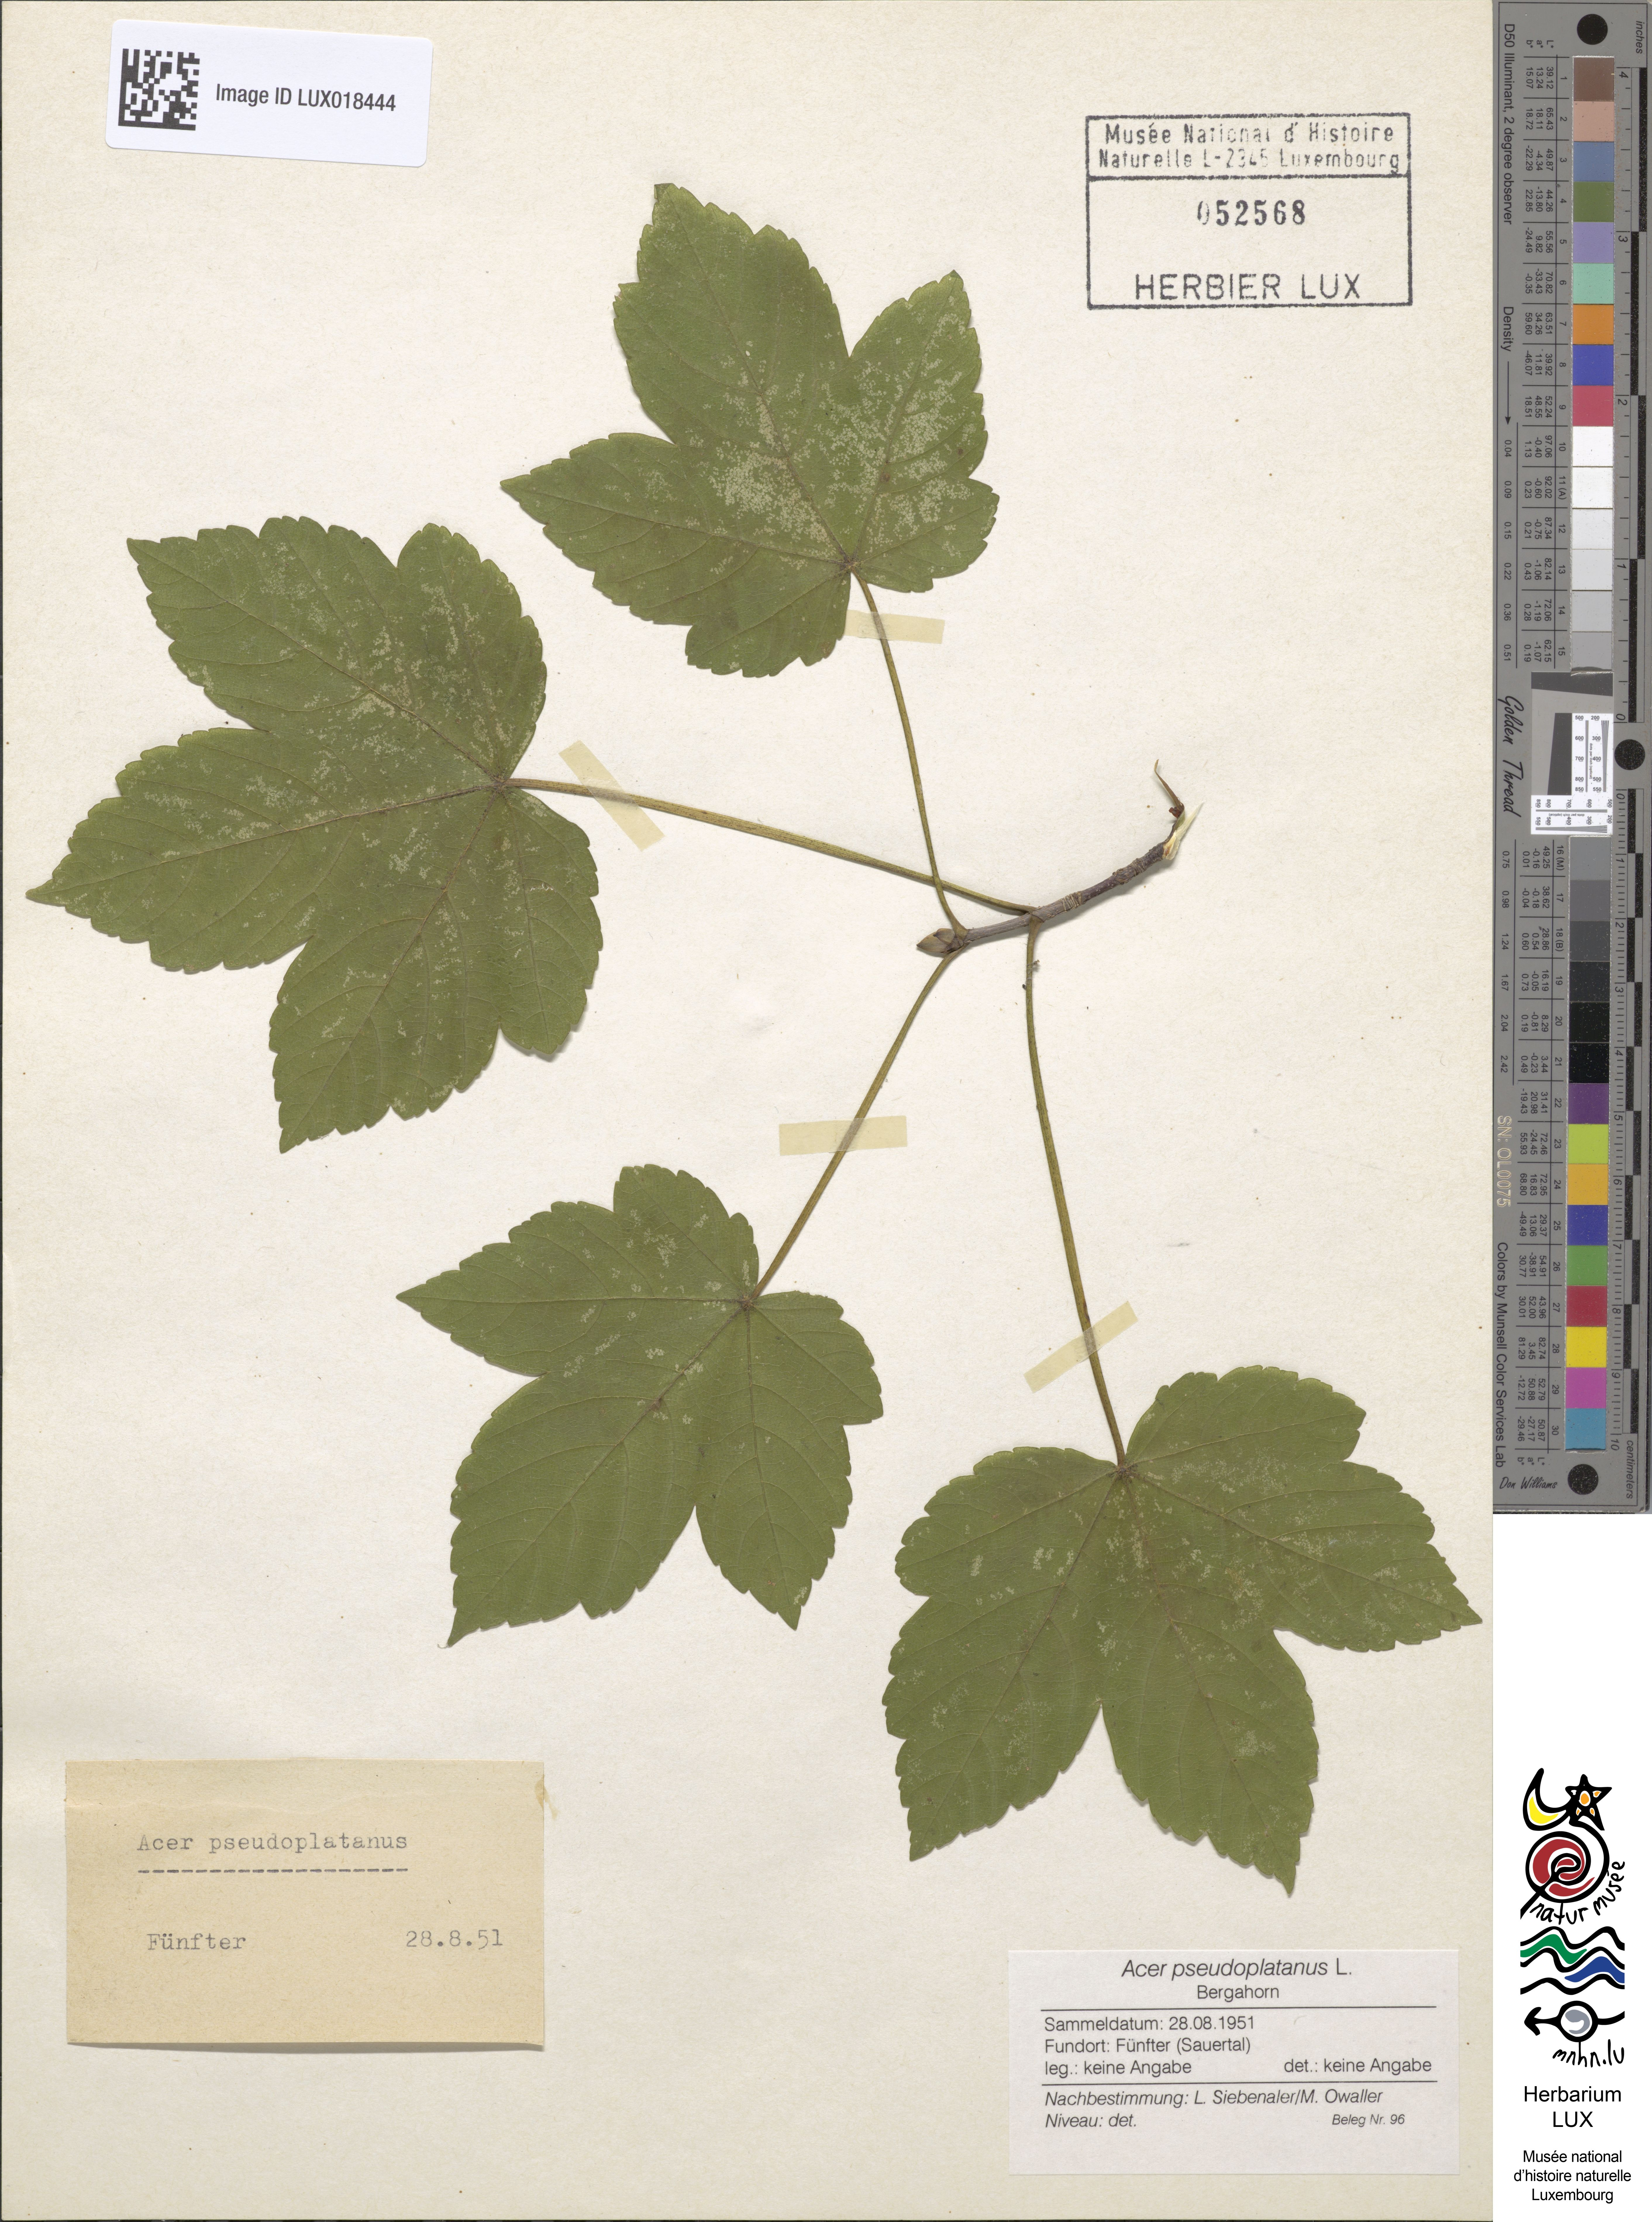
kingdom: Plantae
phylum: Tracheophyta
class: Magnoliopsida
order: Sapindales
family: Sapindaceae
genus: Acer
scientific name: Acer pseudoplatanus
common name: Sycamore
